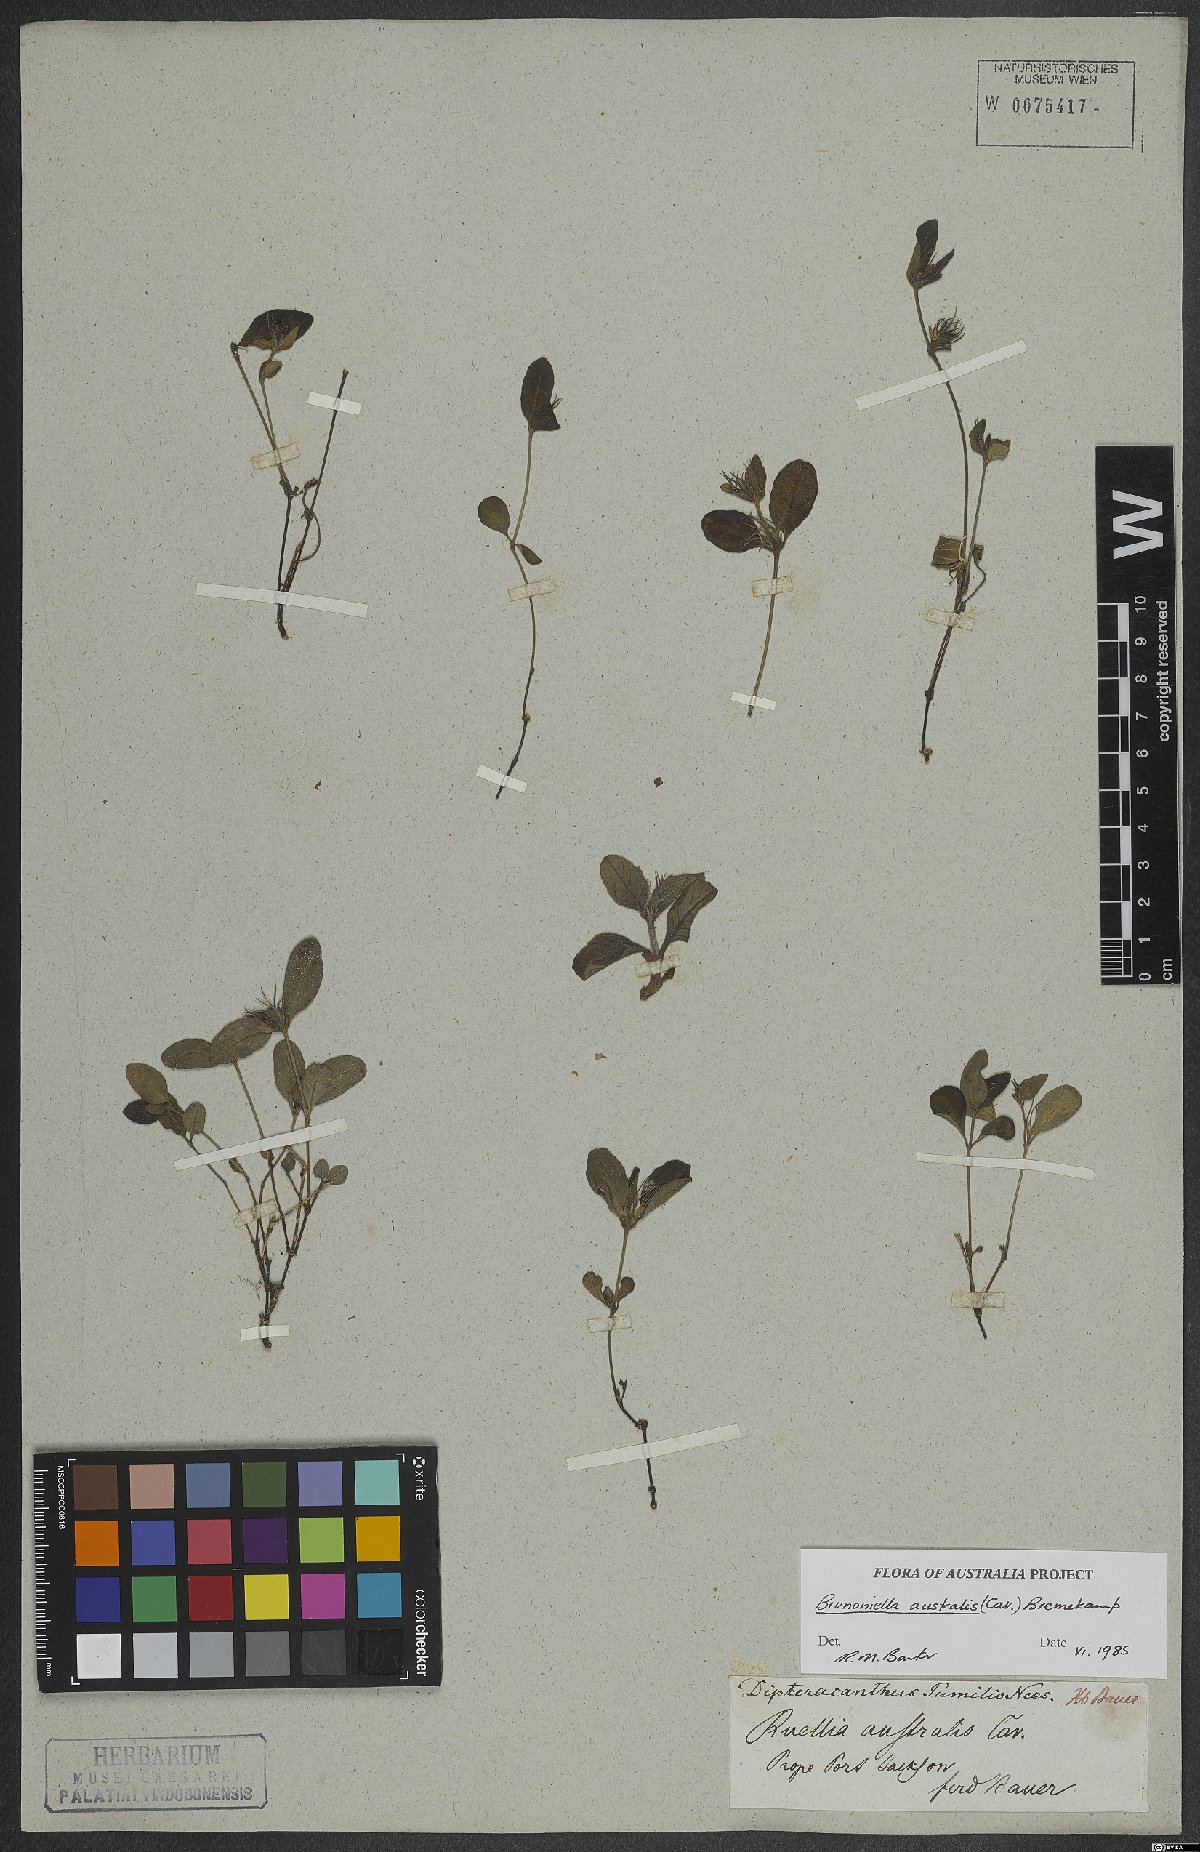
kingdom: Plantae
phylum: Tracheophyta
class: Magnoliopsida
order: Lamiales
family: Acanthaceae
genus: Brunoniella
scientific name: Brunoniella australis
